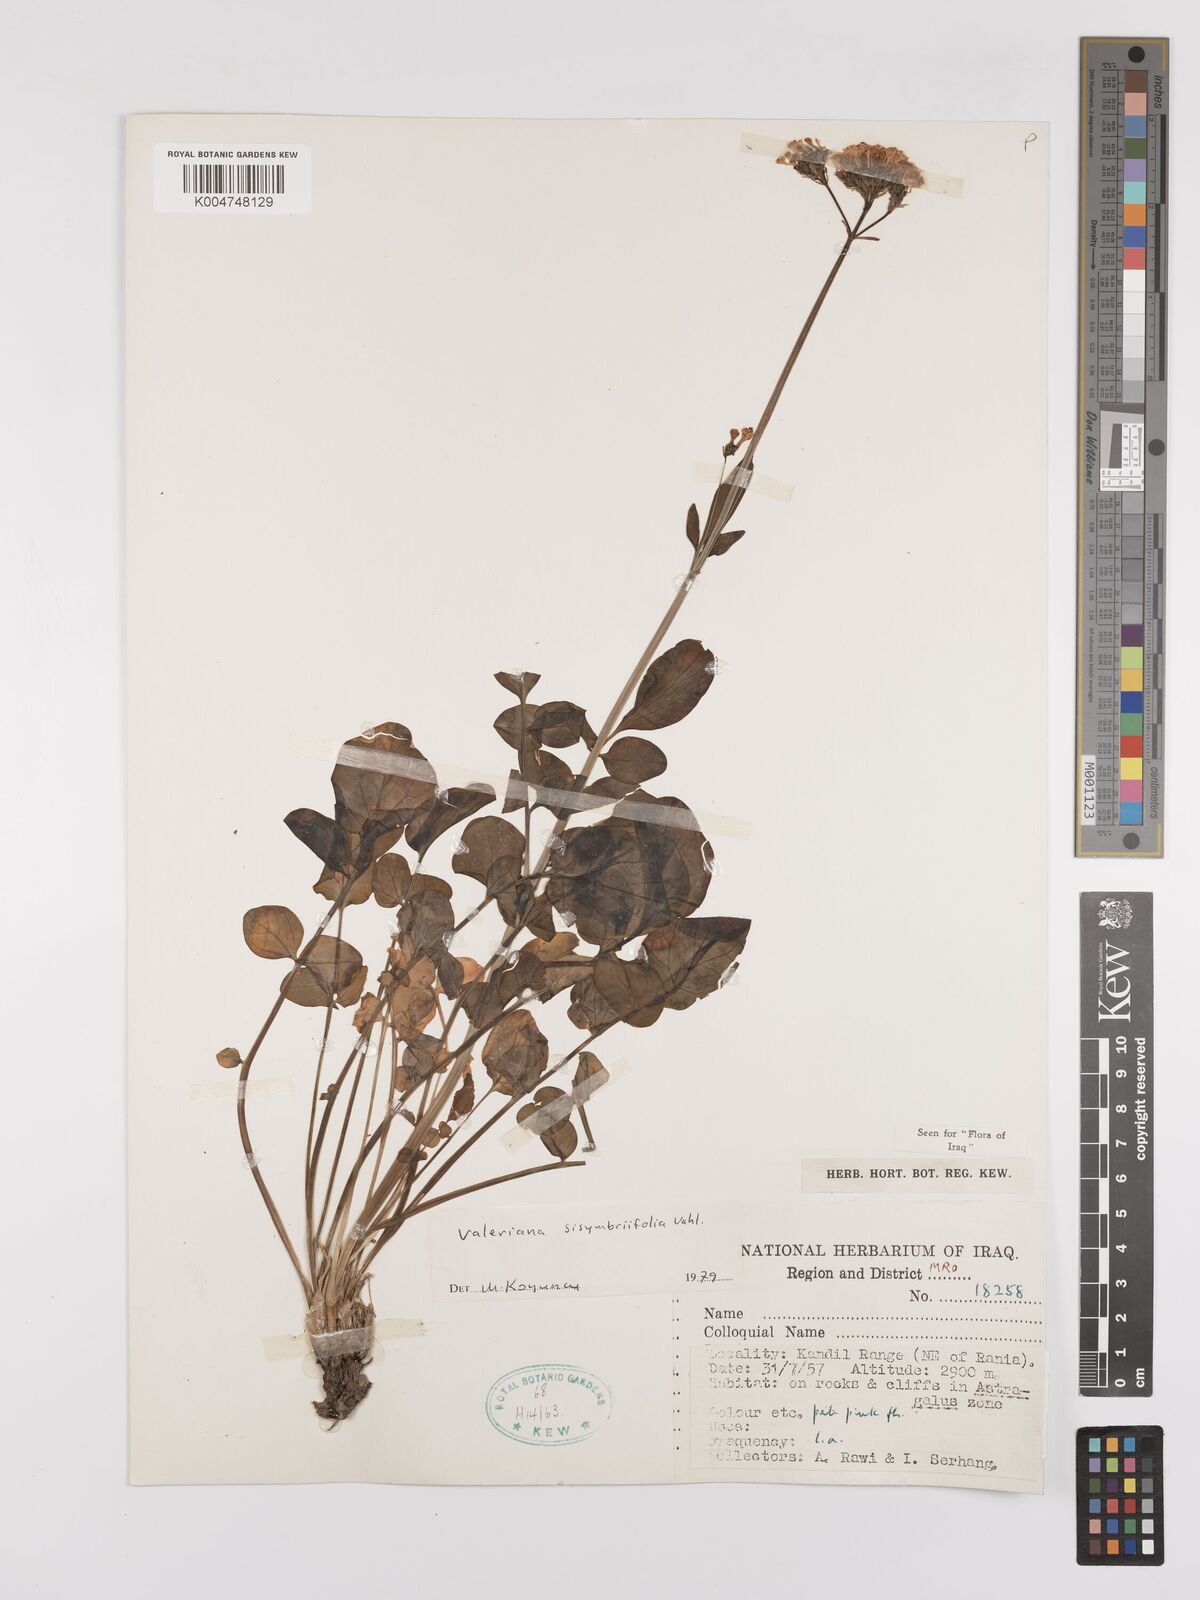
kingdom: Plantae
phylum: Tracheophyta
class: Magnoliopsida
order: Dipsacales
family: Caprifoliaceae
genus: Valeriana
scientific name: Valeriana
